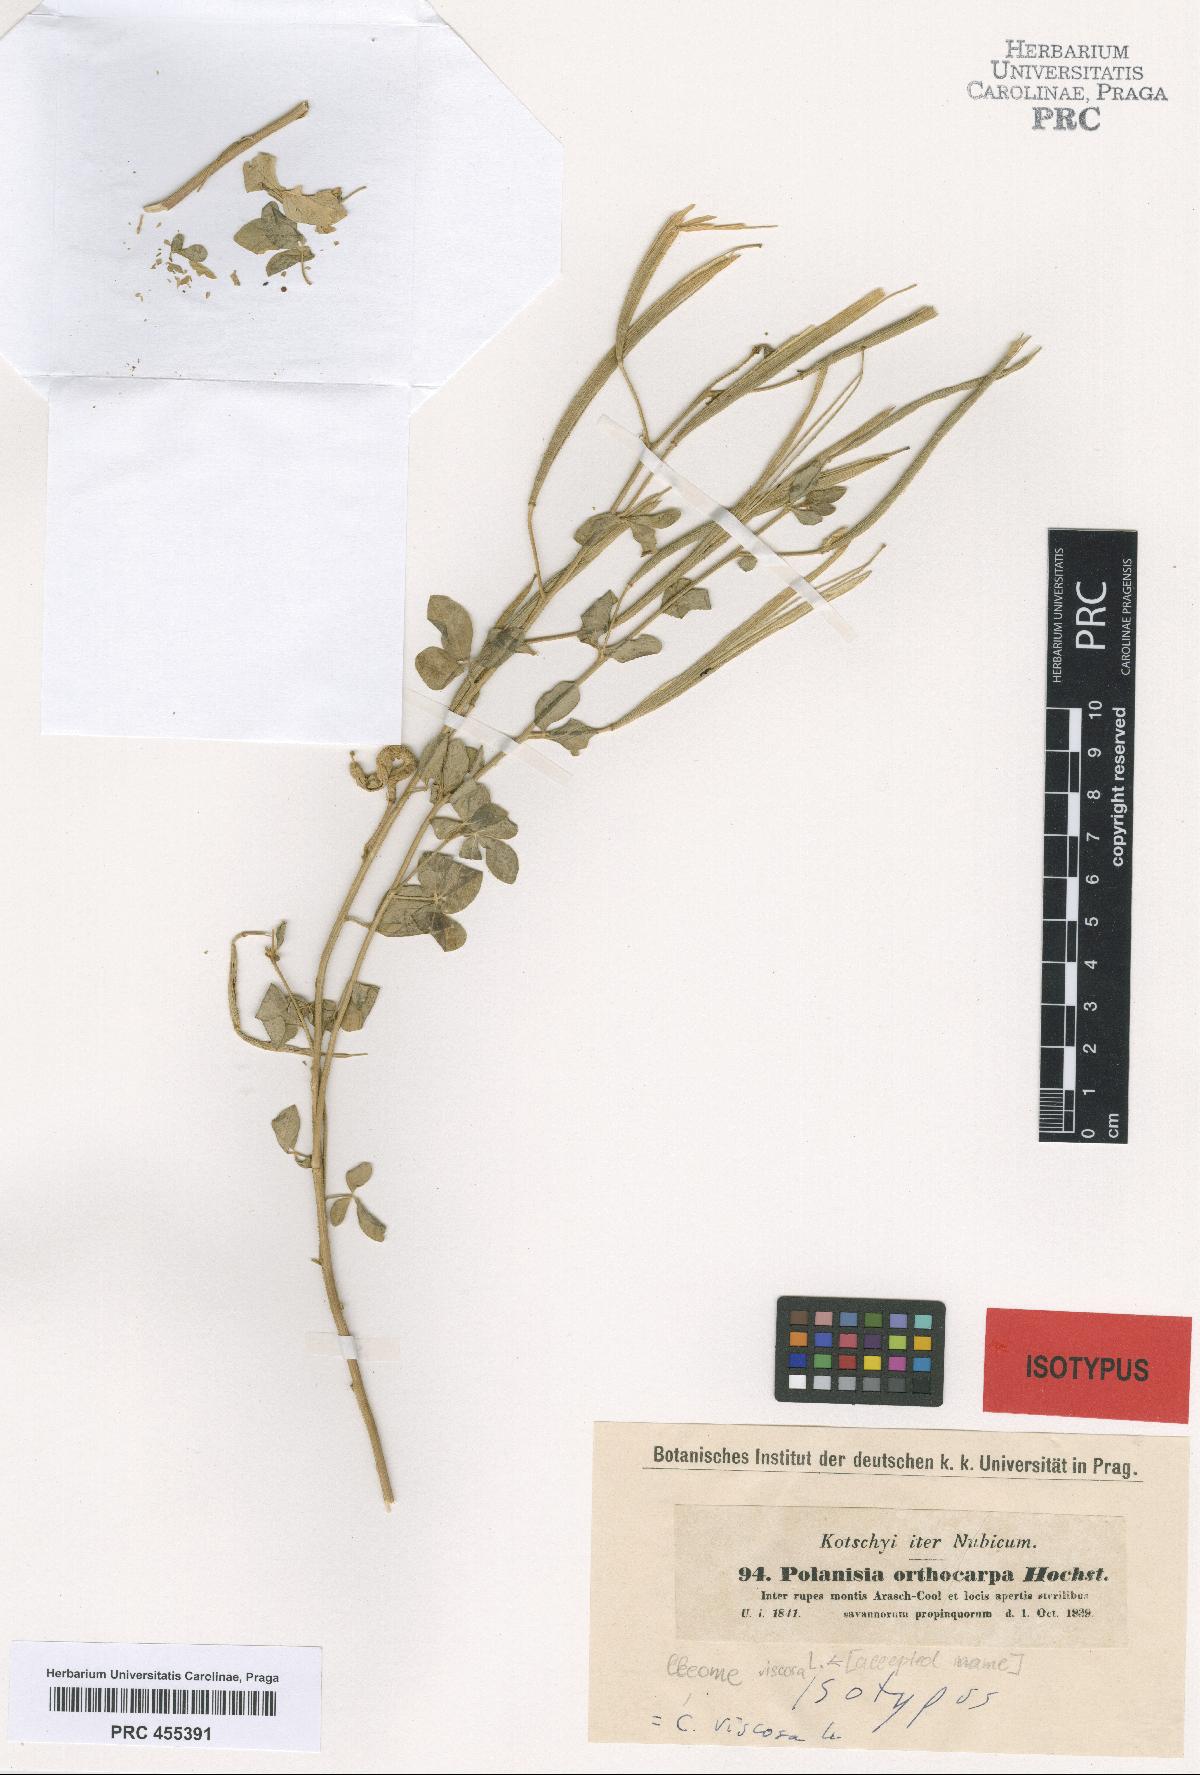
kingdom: Plantae
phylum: Tracheophyta
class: Magnoliopsida
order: Brassicales
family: Cleomaceae
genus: Arivela
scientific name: Arivela viscosa
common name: Asian spiderflower
